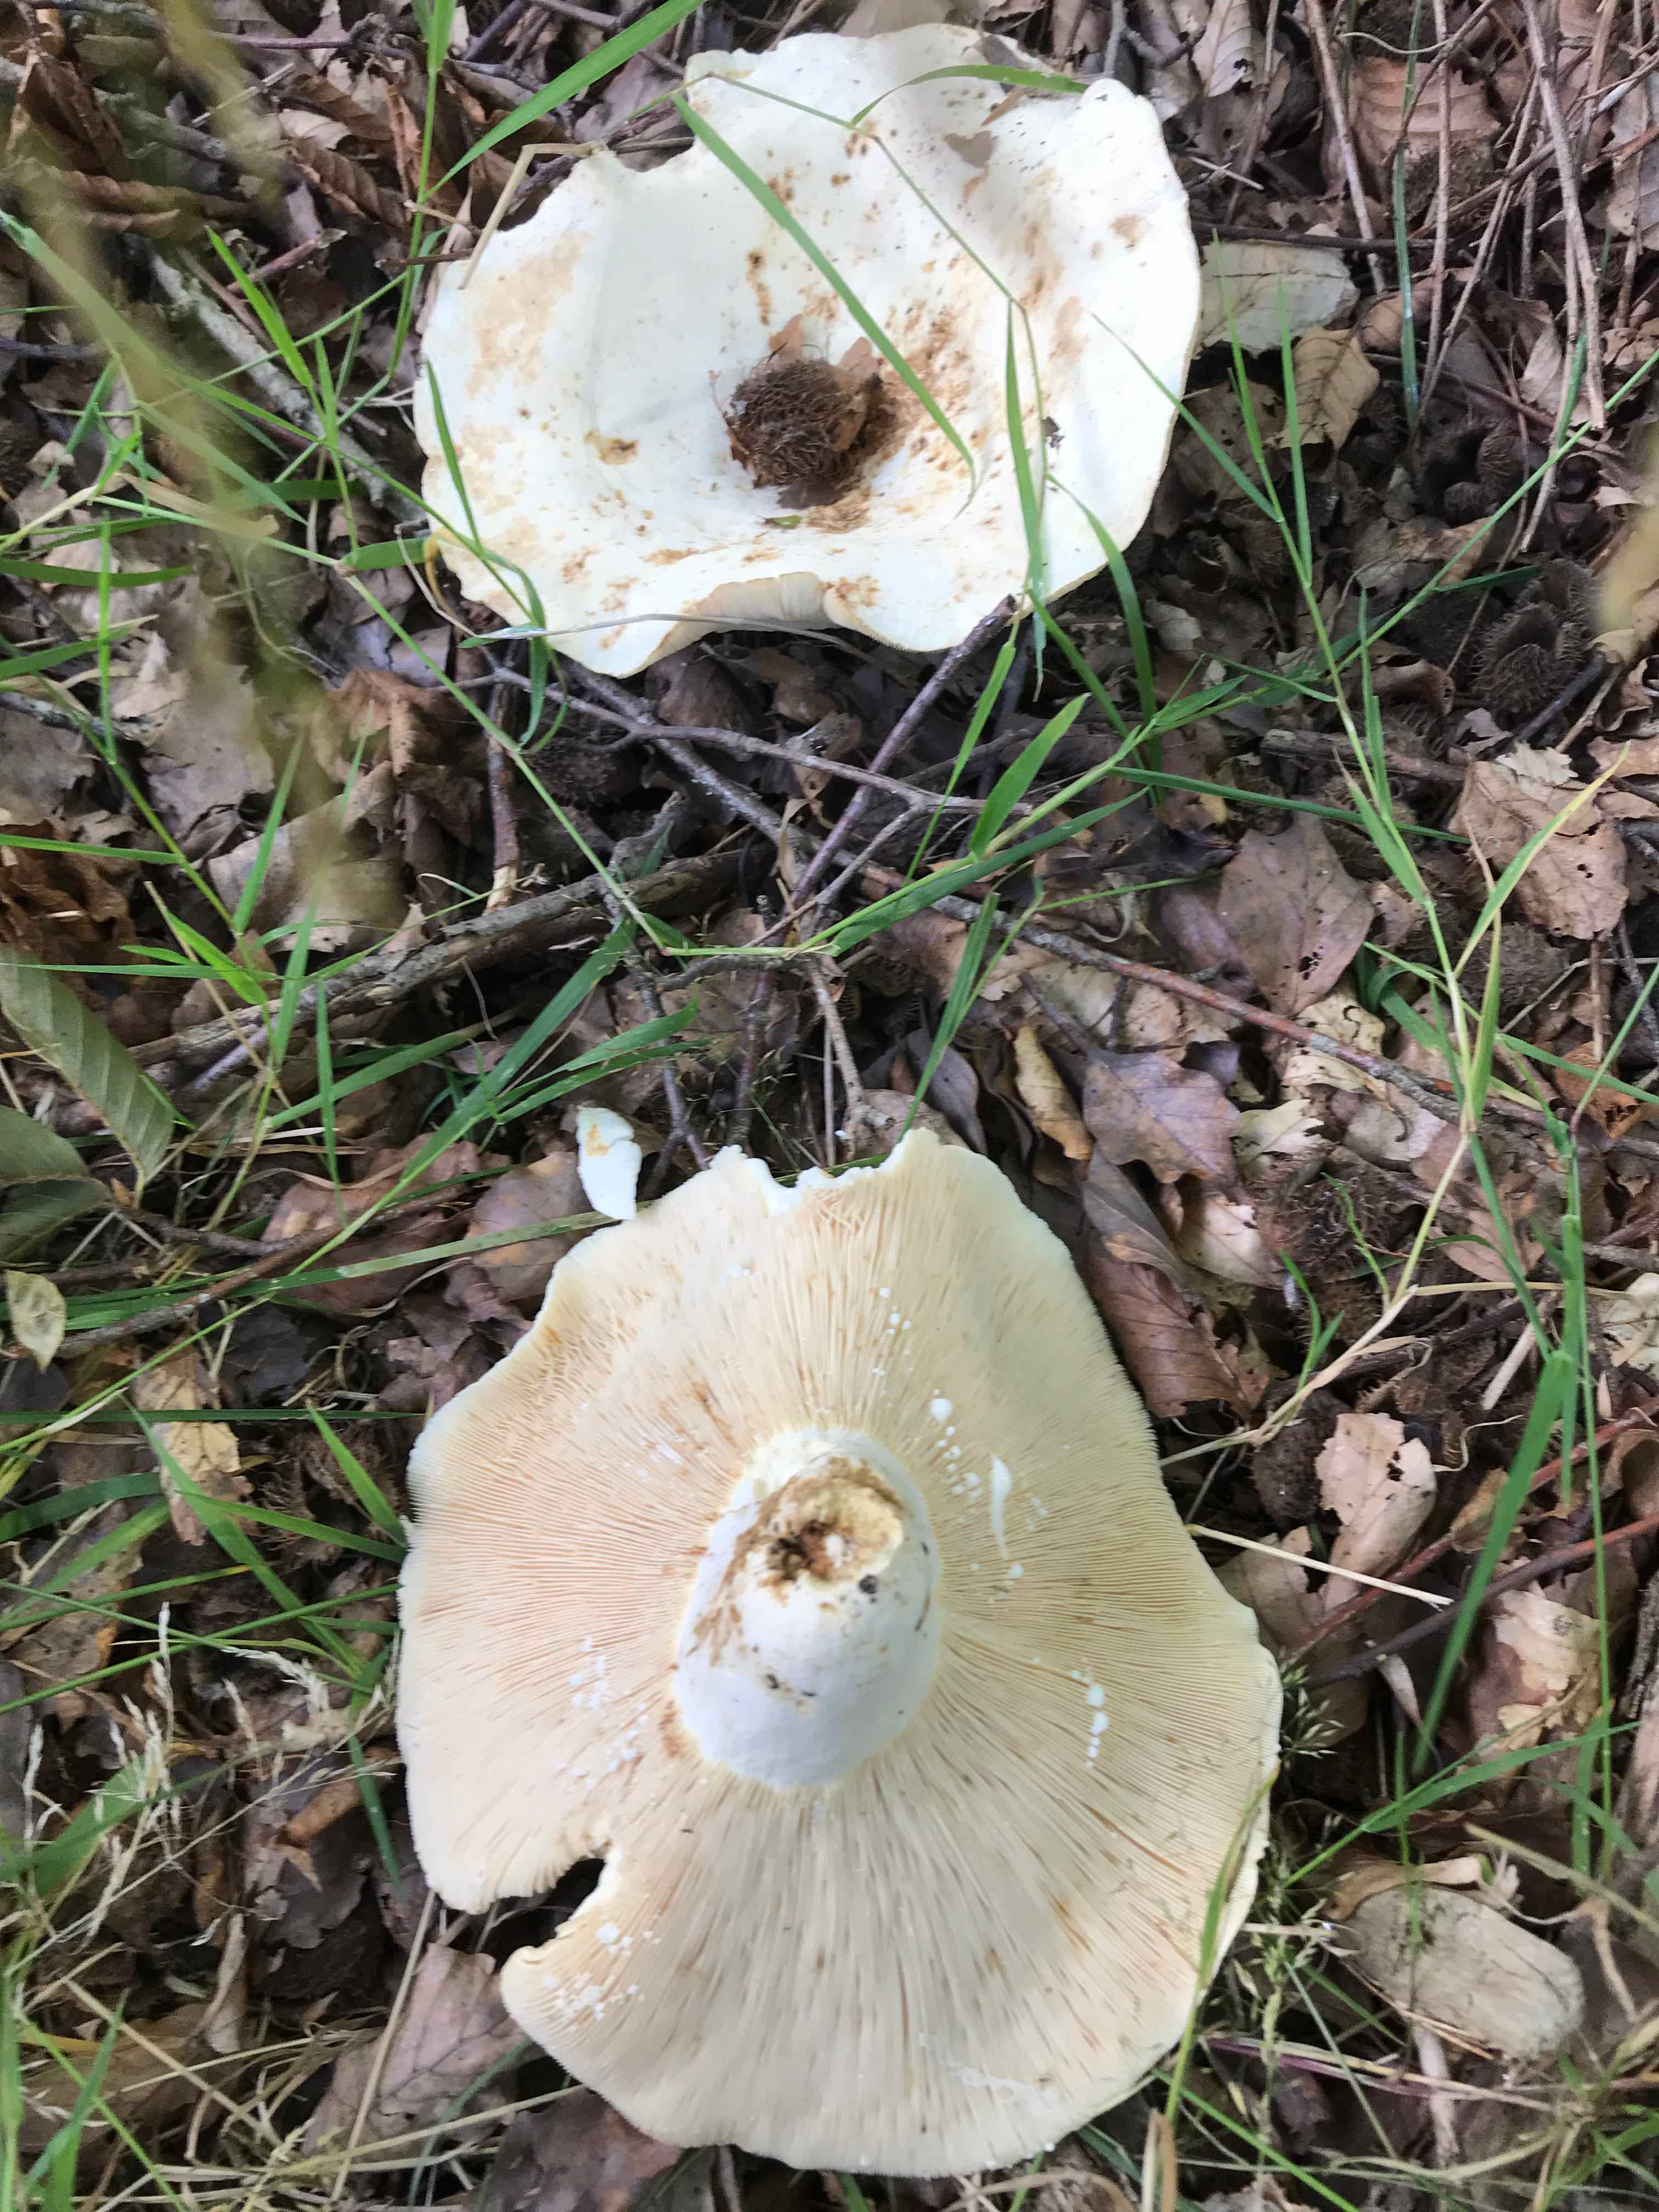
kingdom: Fungi
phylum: Basidiomycota
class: Agaricomycetes
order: Russulales
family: Russulaceae
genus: Lactifluus
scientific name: Lactifluus piperatus
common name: peber-mælkehat
